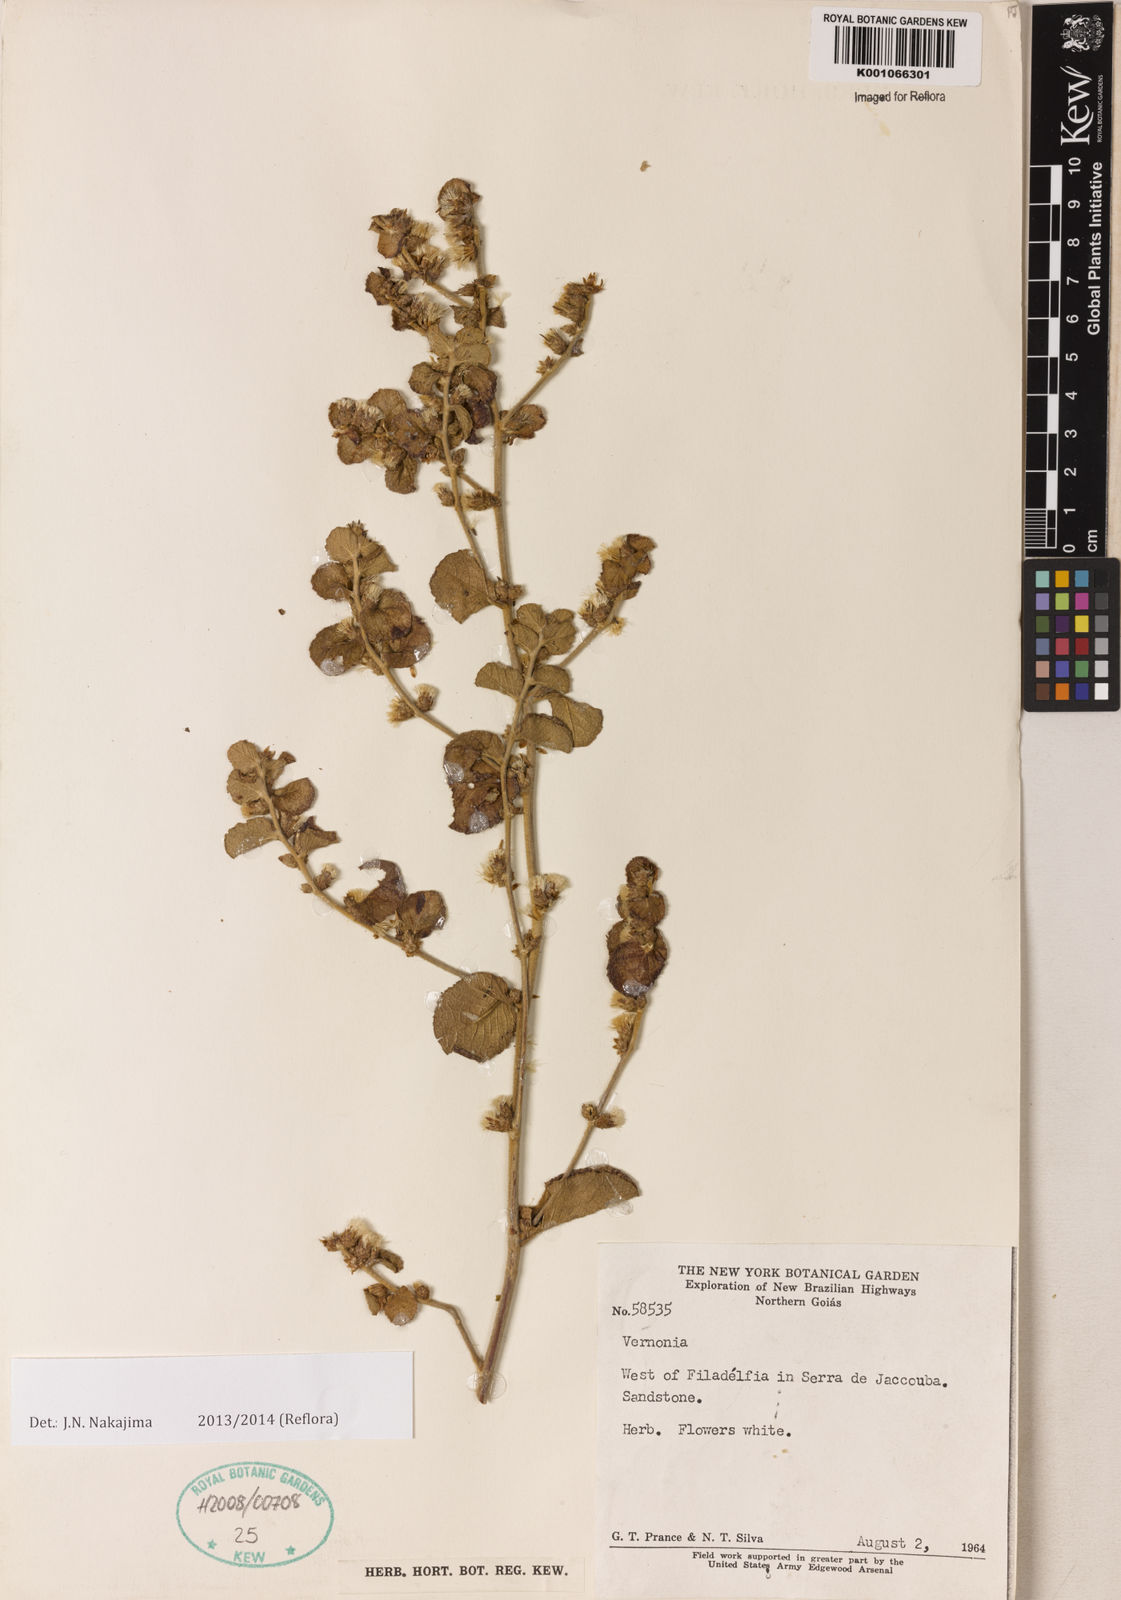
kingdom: Plantae
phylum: Tracheophyta
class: Magnoliopsida
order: Asterales
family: Asteraceae
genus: Vernonia
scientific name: Vernonia
